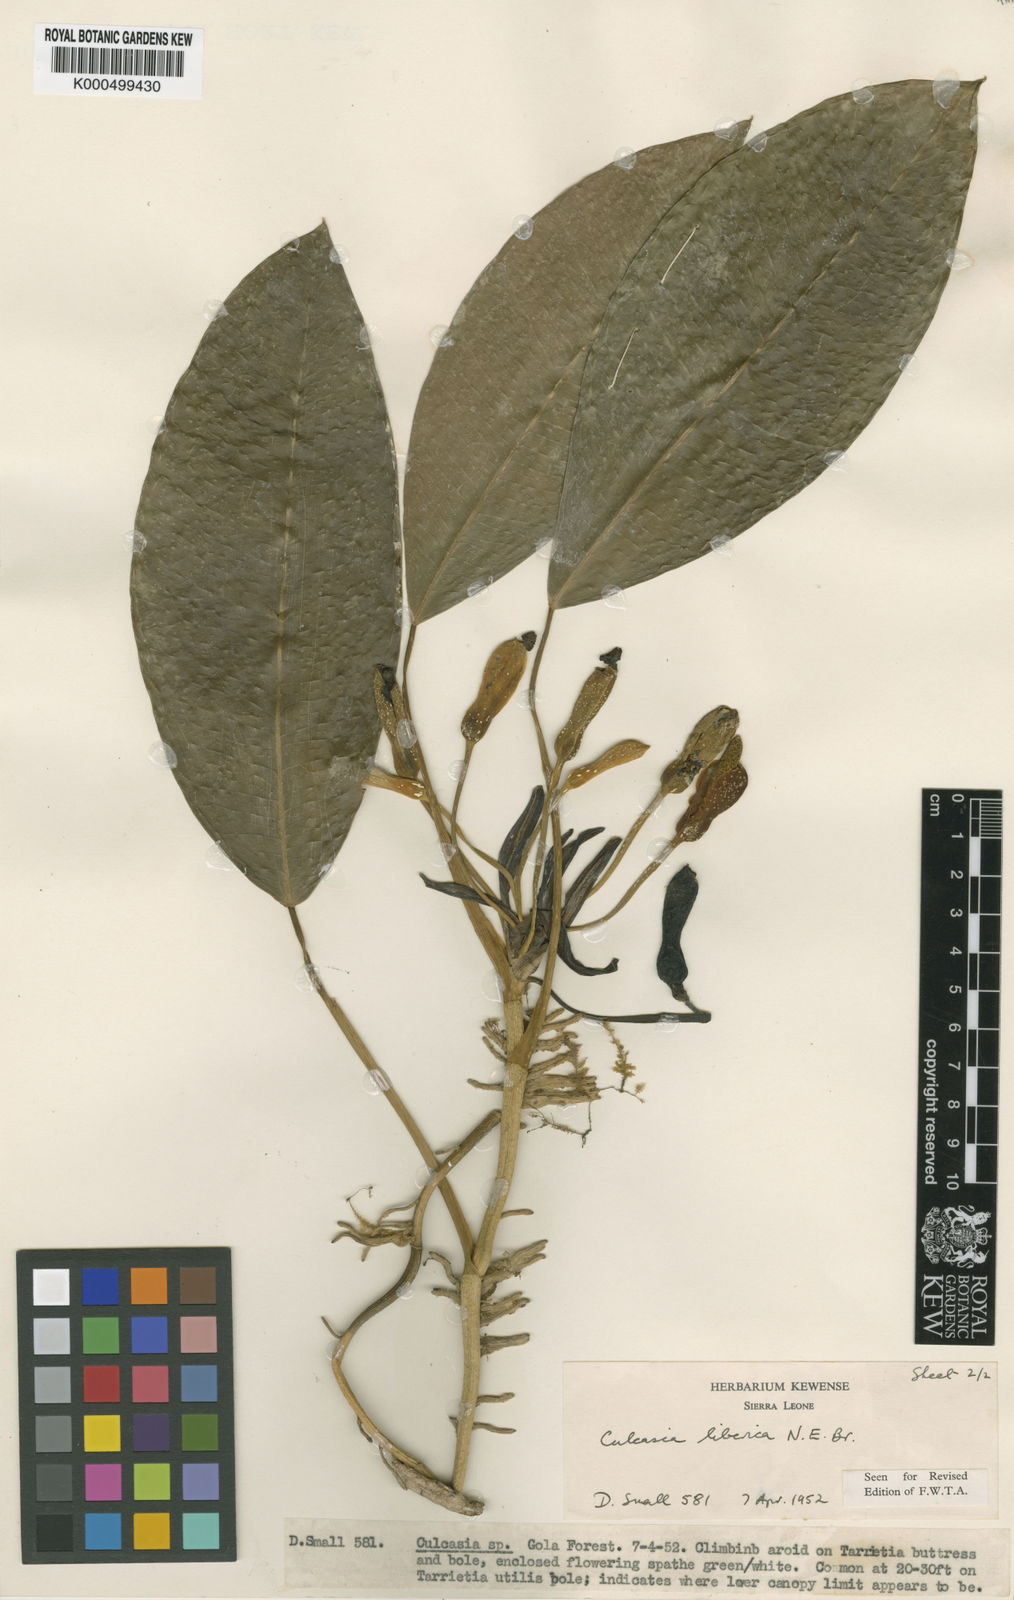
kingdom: Plantae
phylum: Tracheophyta
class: Liliopsida
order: Alismatales
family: Araceae
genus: Culcasia
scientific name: Culcasia liberica
